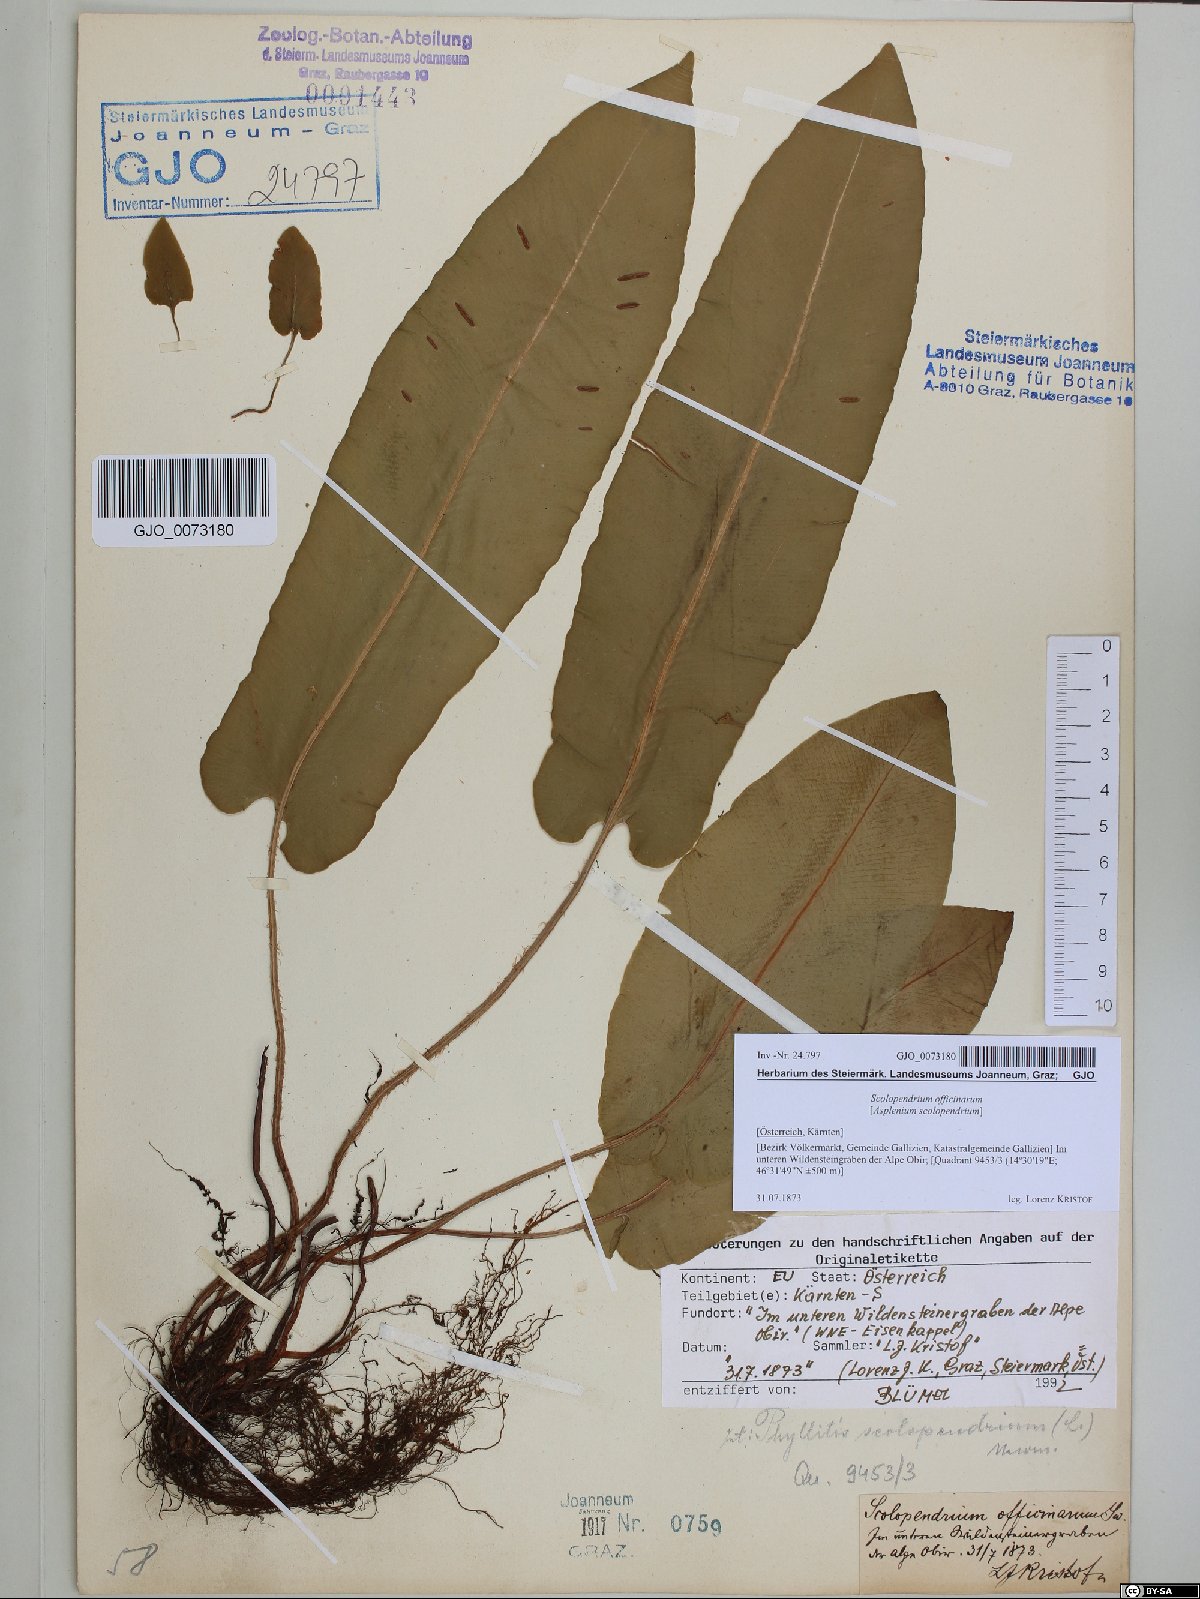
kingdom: Plantae
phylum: Tracheophyta
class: Polypodiopsida
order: Polypodiales
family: Aspleniaceae
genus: Asplenium
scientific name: Asplenium scolopendrium
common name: Hart's-tongue fern
